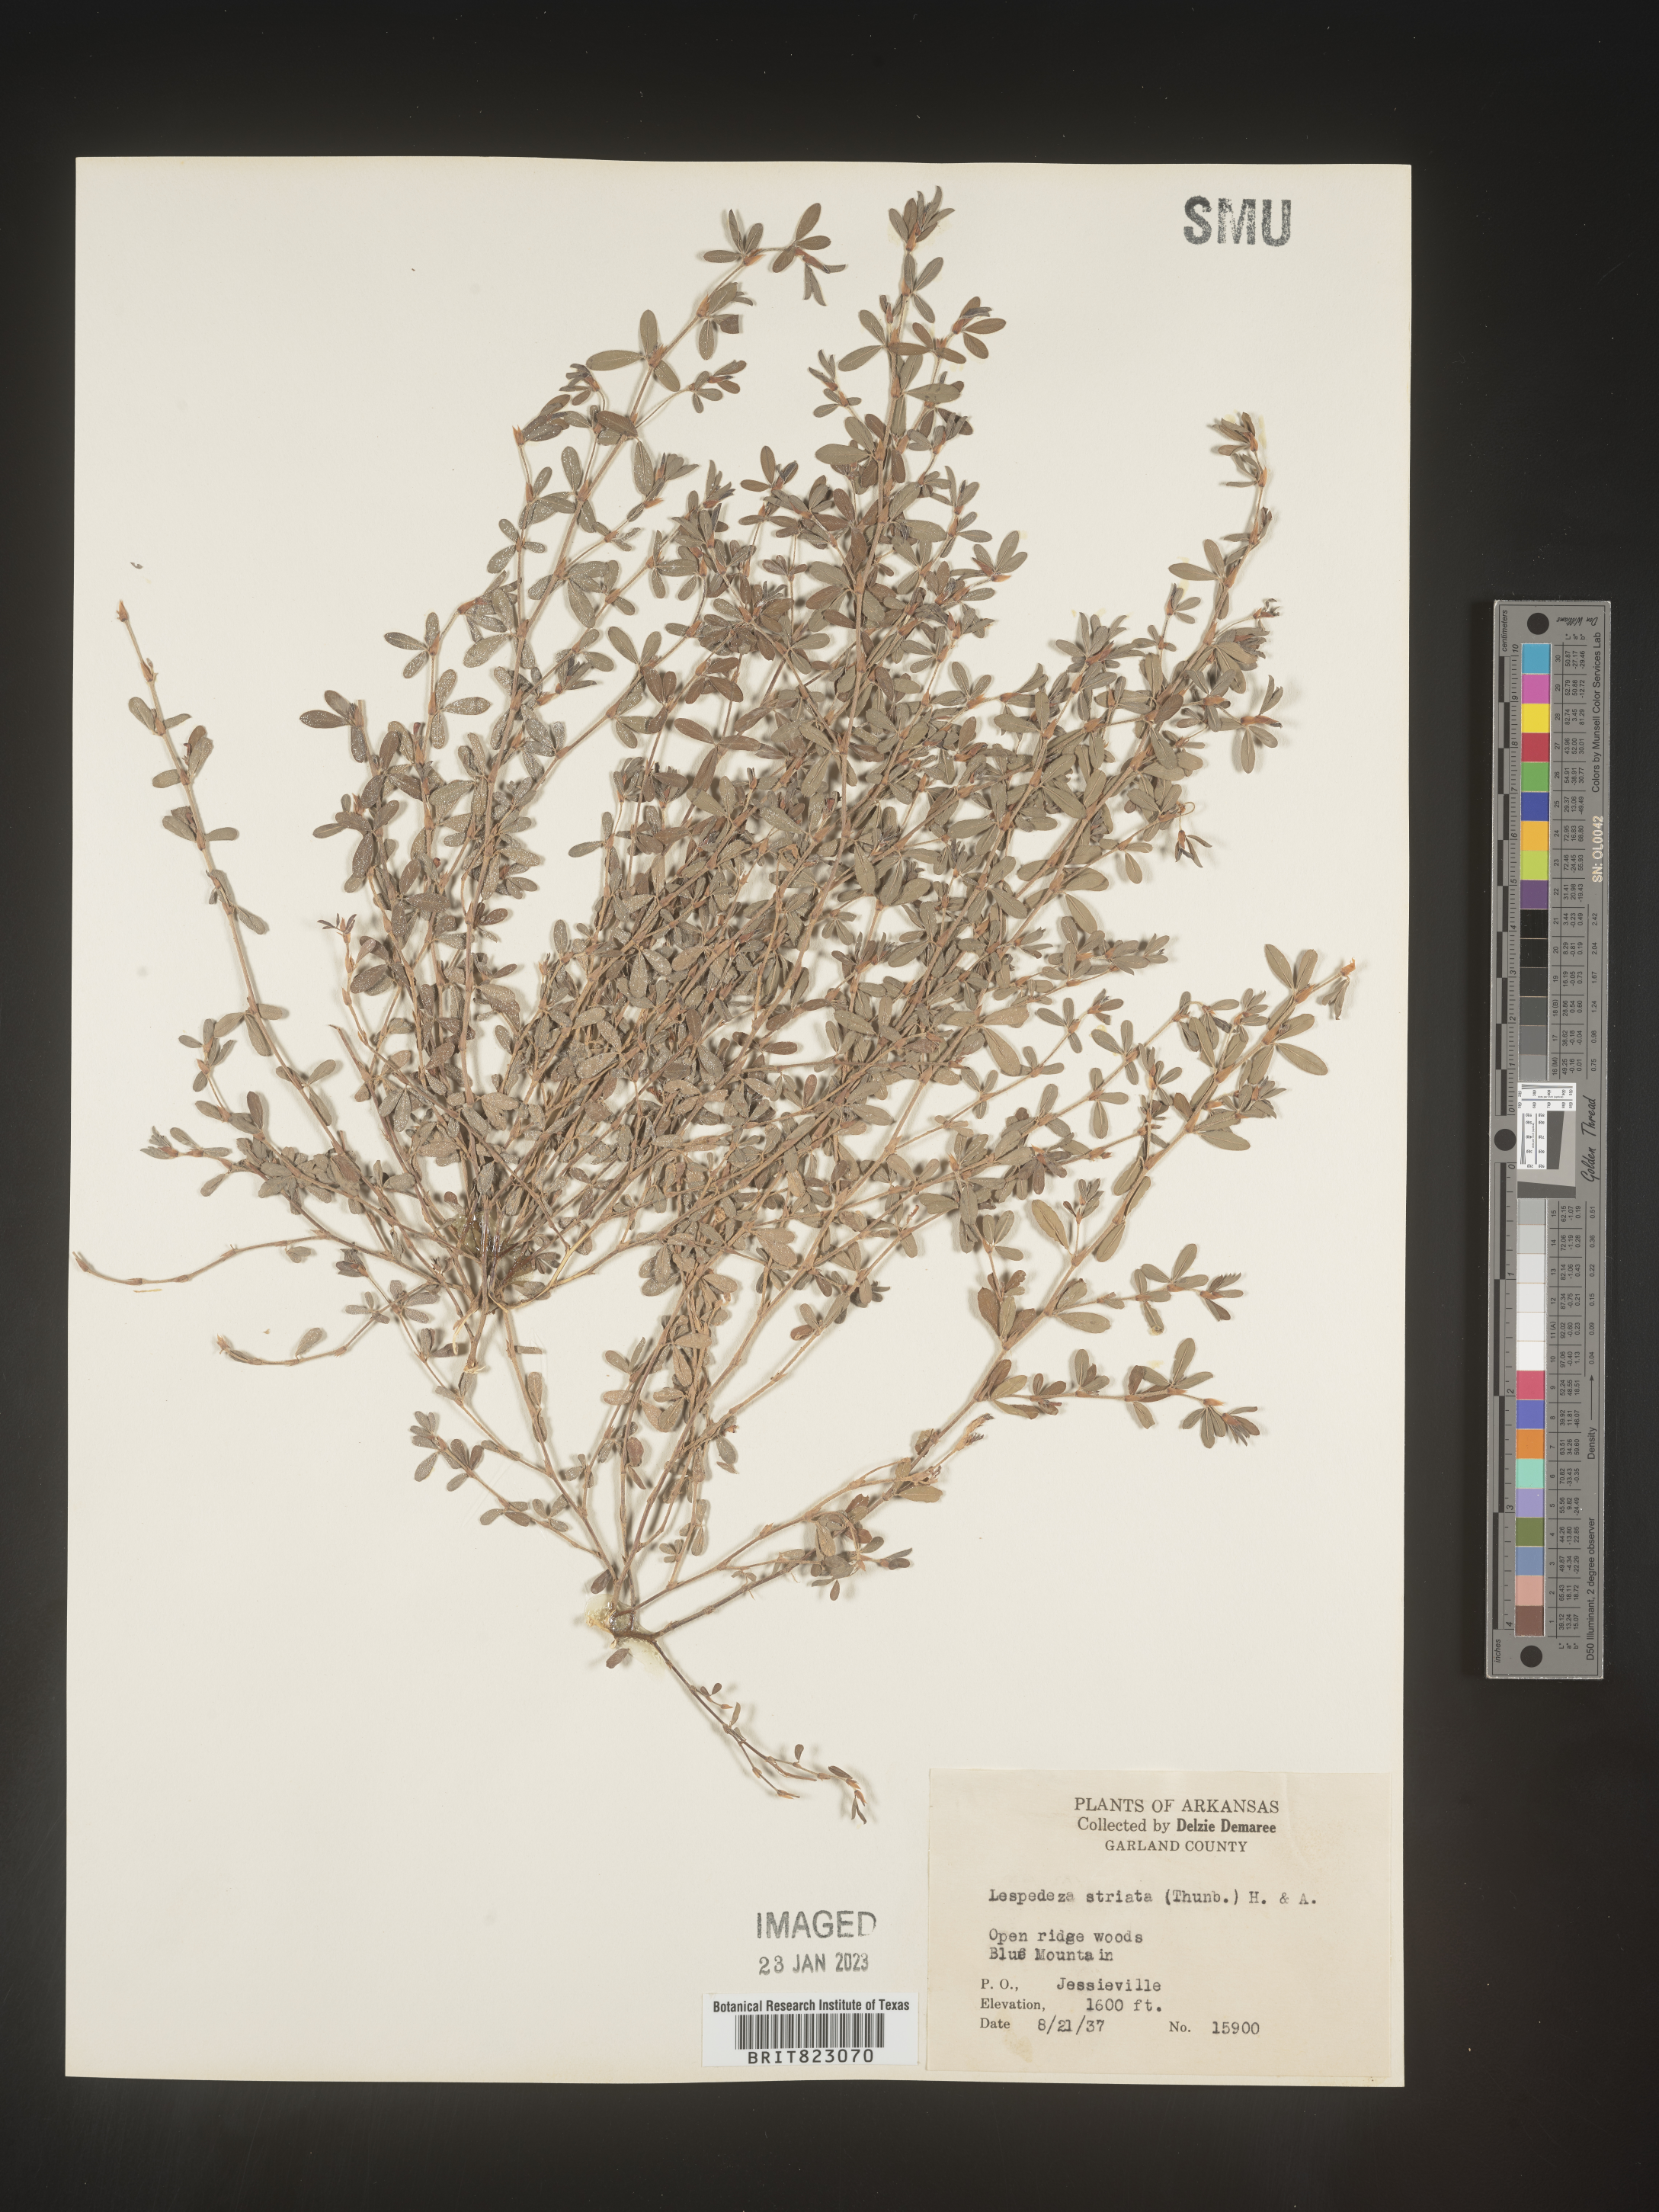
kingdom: Plantae
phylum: Tracheophyta
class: Magnoliopsida
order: Fabales
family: Fabaceae
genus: Kummerowia
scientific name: Kummerowia striata
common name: Japanese clover
